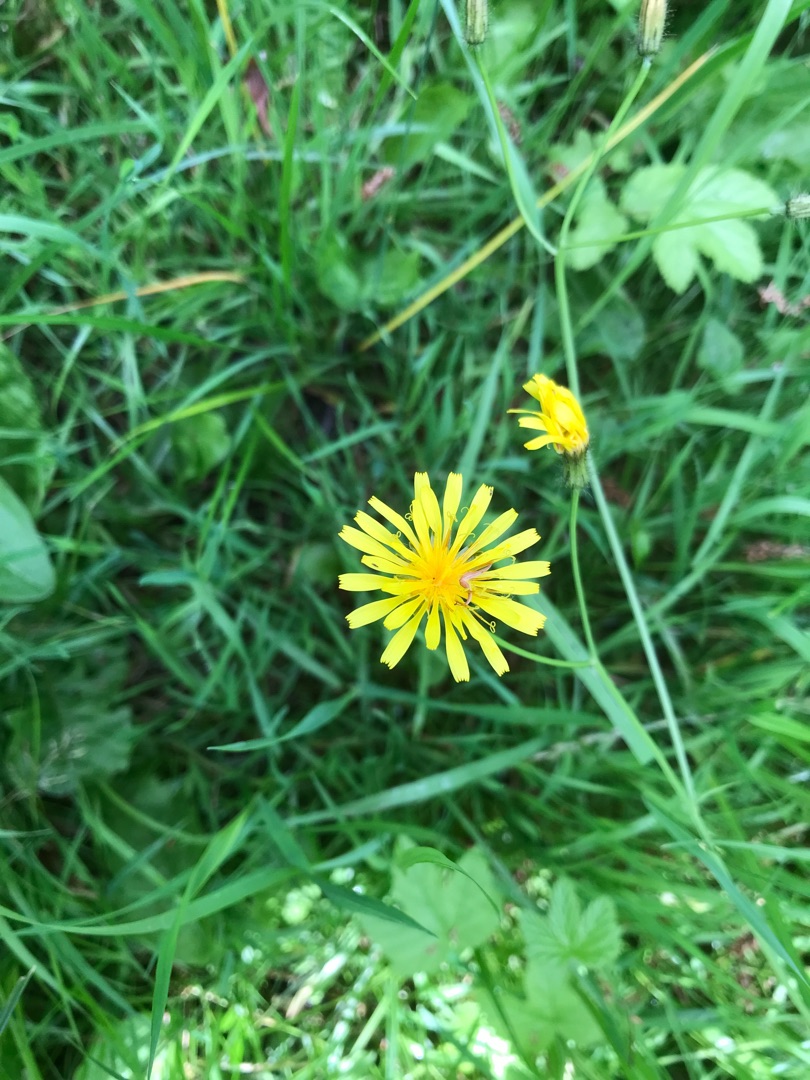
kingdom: Plantae
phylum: Tracheophyta
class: Magnoliopsida
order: Asterales
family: Asteraceae
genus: Crepis
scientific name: Crepis paludosa
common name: Kær-høgeskæg
